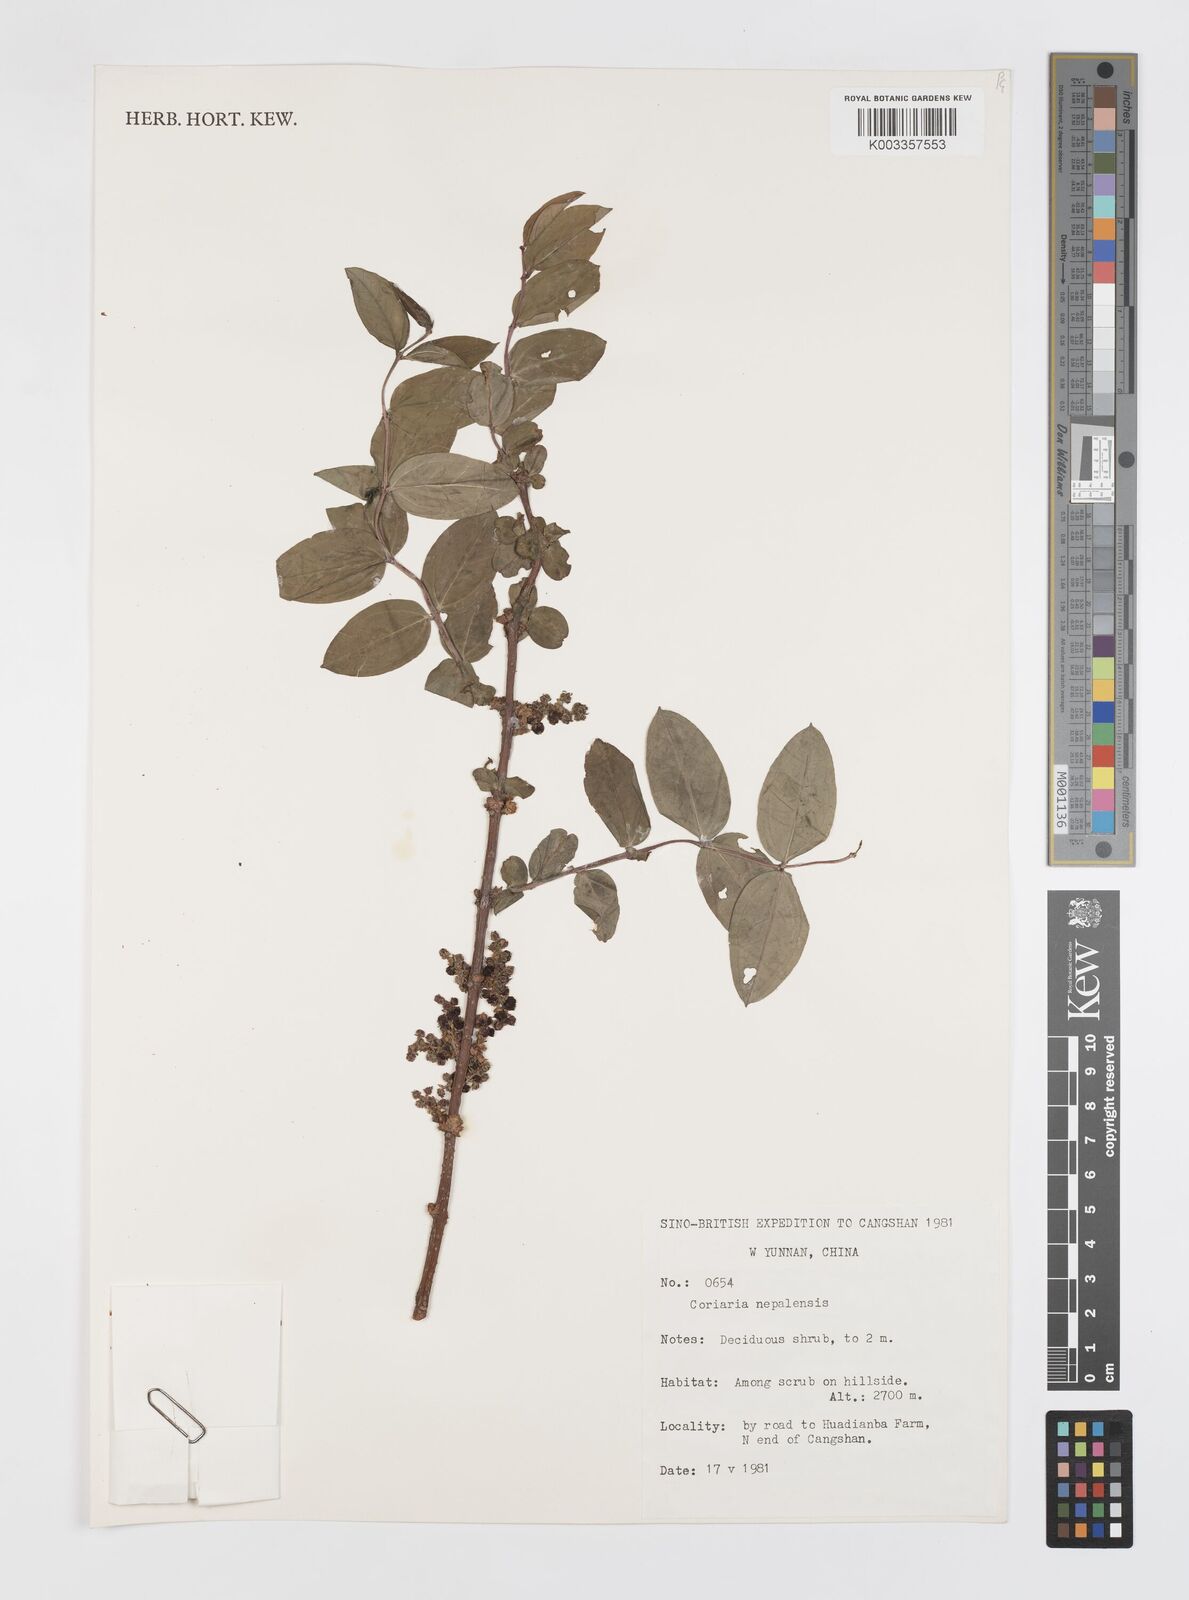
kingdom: Plantae
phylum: Tracheophyta
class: Magnoliopsida
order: Cucurbitales
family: Coriariaceae
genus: Coriaria
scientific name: Coriaria napalensis
